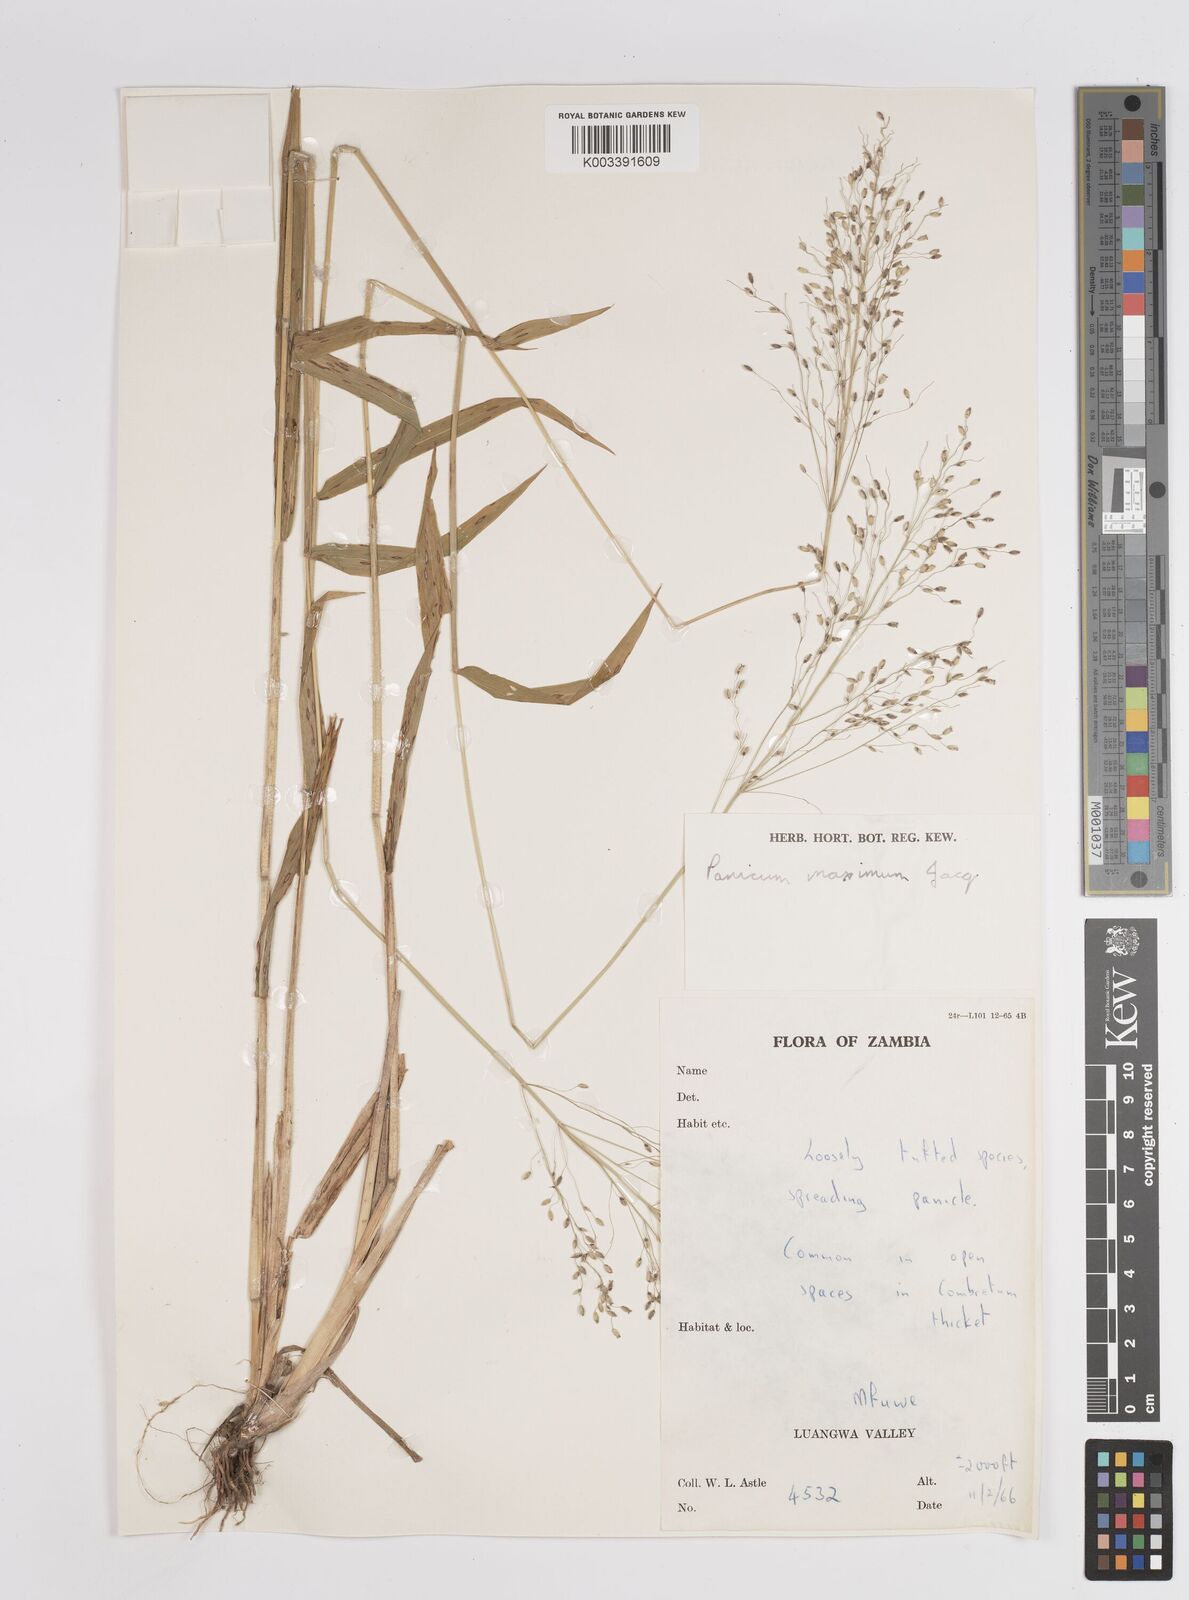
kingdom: Plantae
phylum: Tracheophyta
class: Liliopsida
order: Poales
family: Poaceae
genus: Megathyrsus
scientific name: Megathyrsus maximus
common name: Guineagrass
